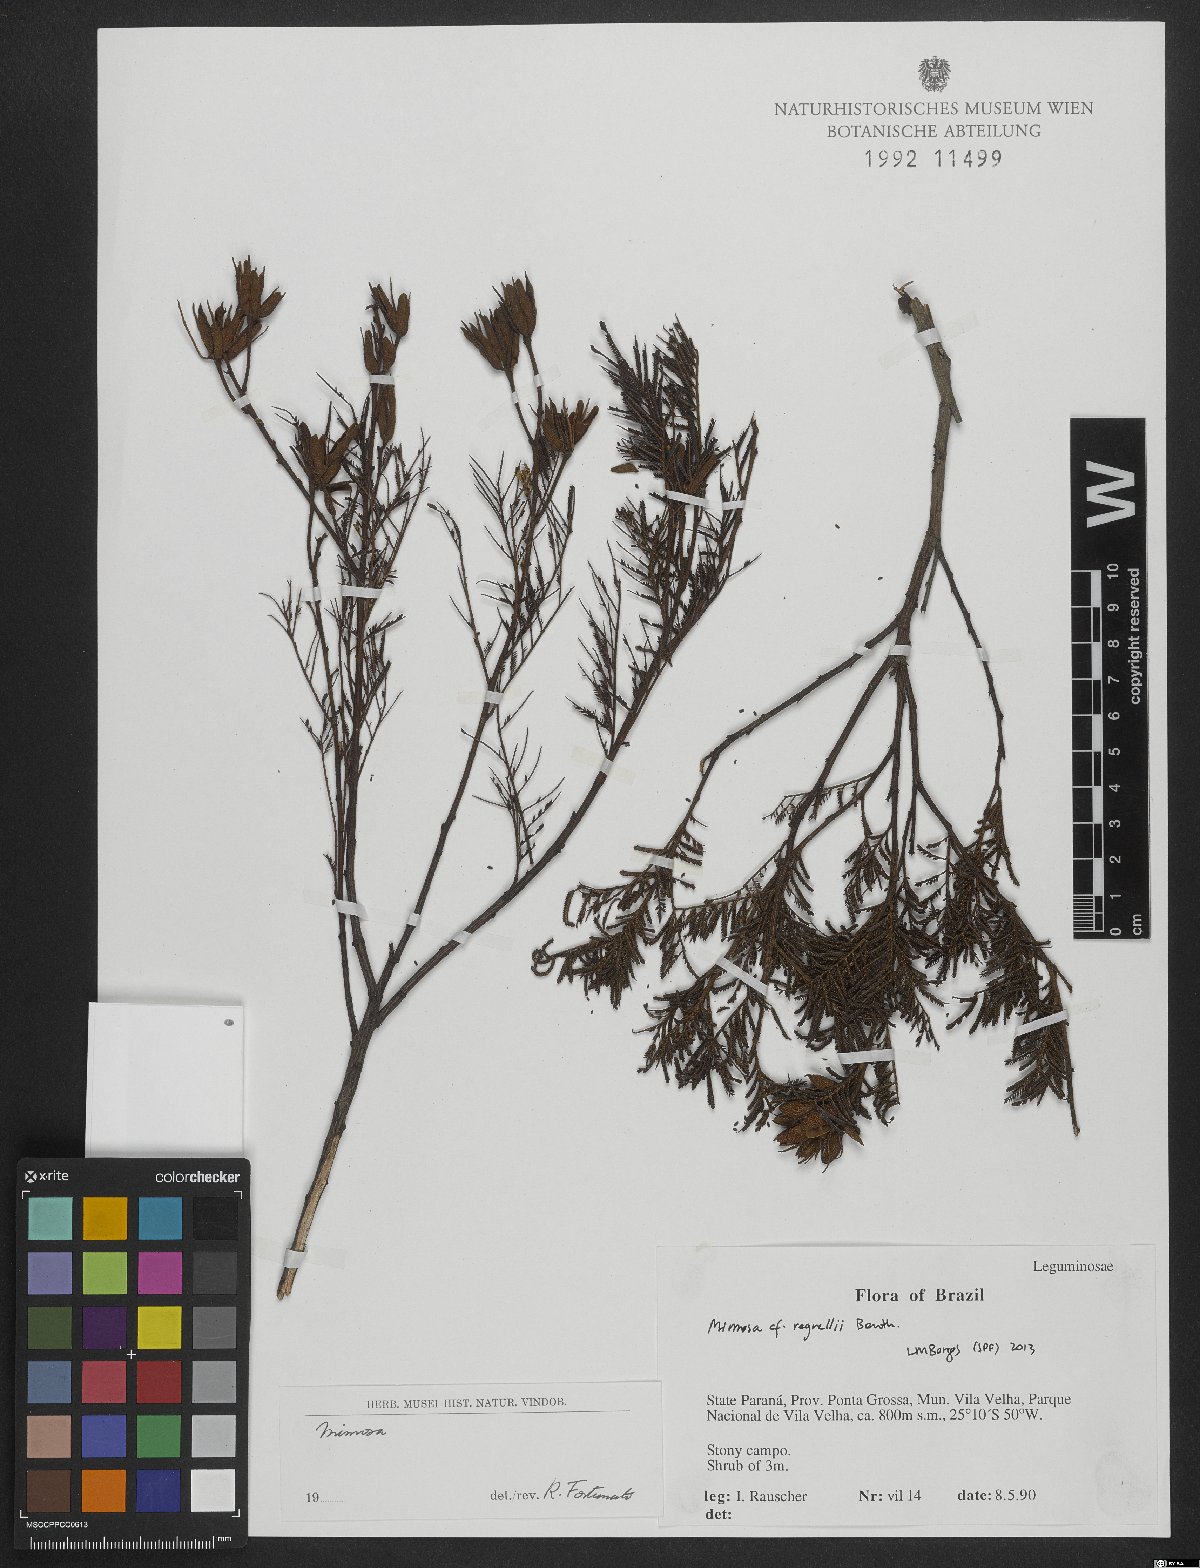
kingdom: Plantae
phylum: Tracheophyta
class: Magnoliopsida
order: Fabales
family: Fabaceae
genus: Mimosa
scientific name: Mimosa regnellii
